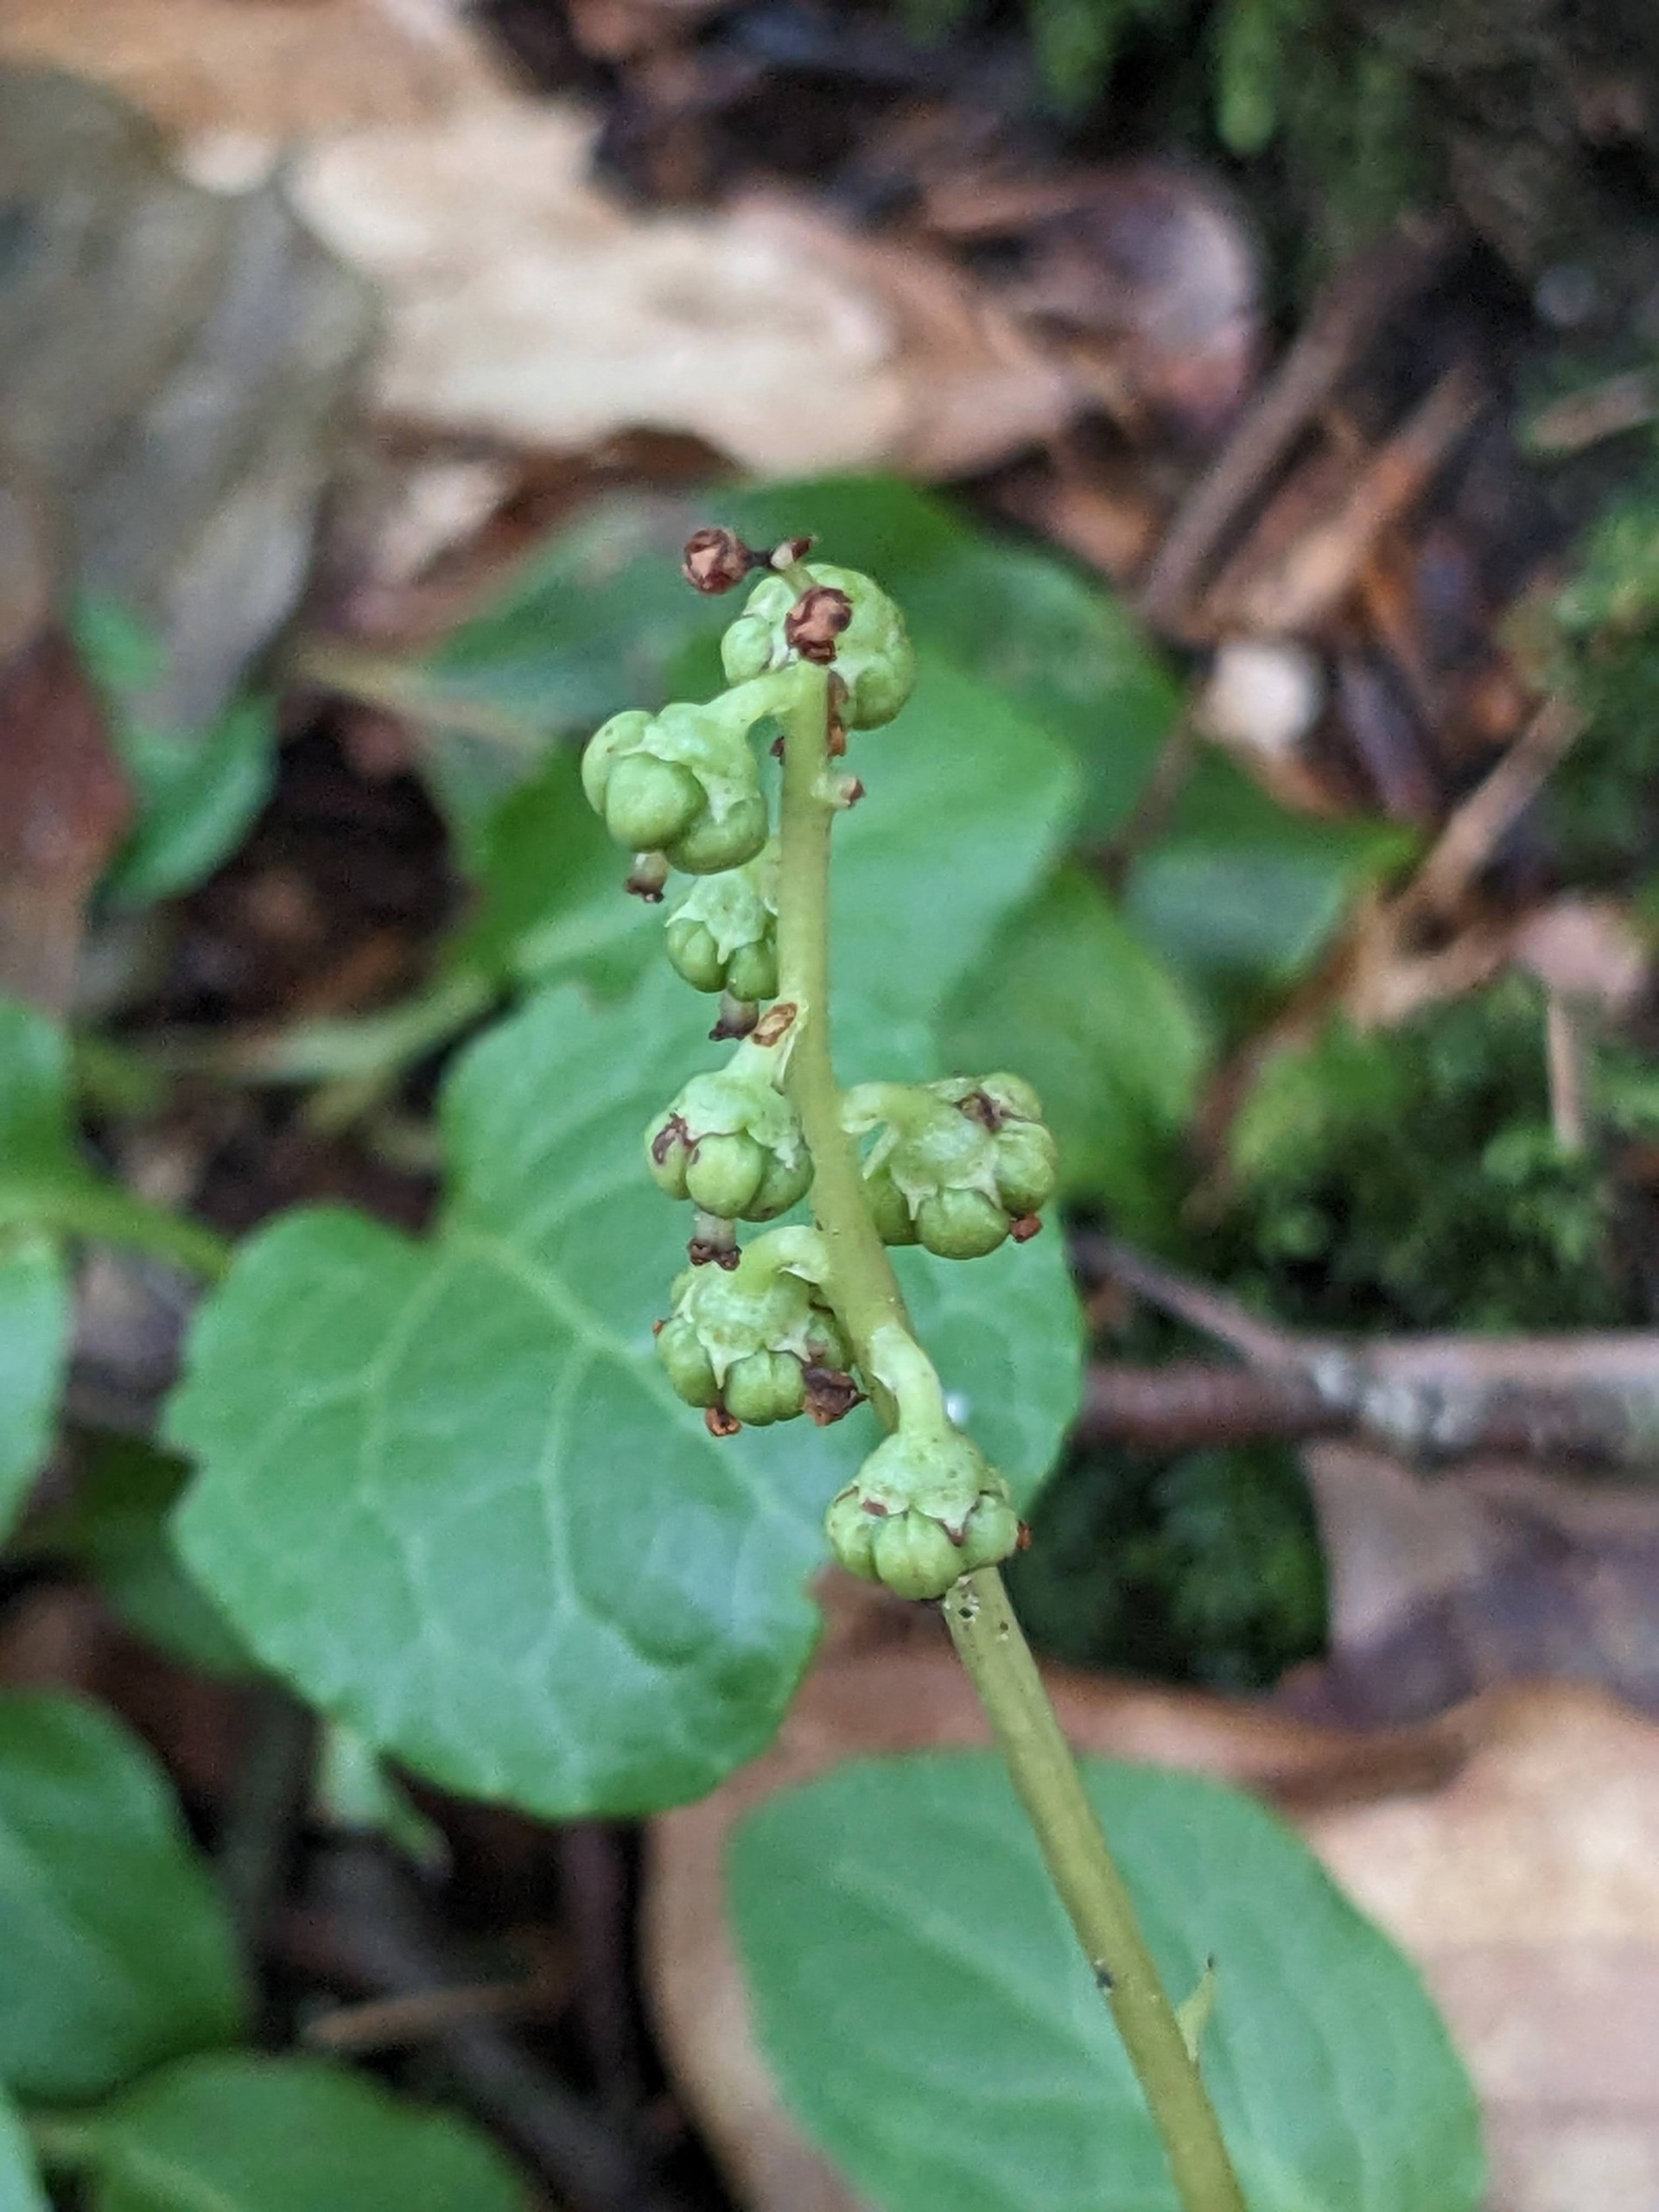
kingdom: Plantae
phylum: Tracheophyta
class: Magnoliopsida
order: Ericales
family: Ericaceae
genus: Pyrola
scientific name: Pyrola minor
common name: Liden vintergrøn
